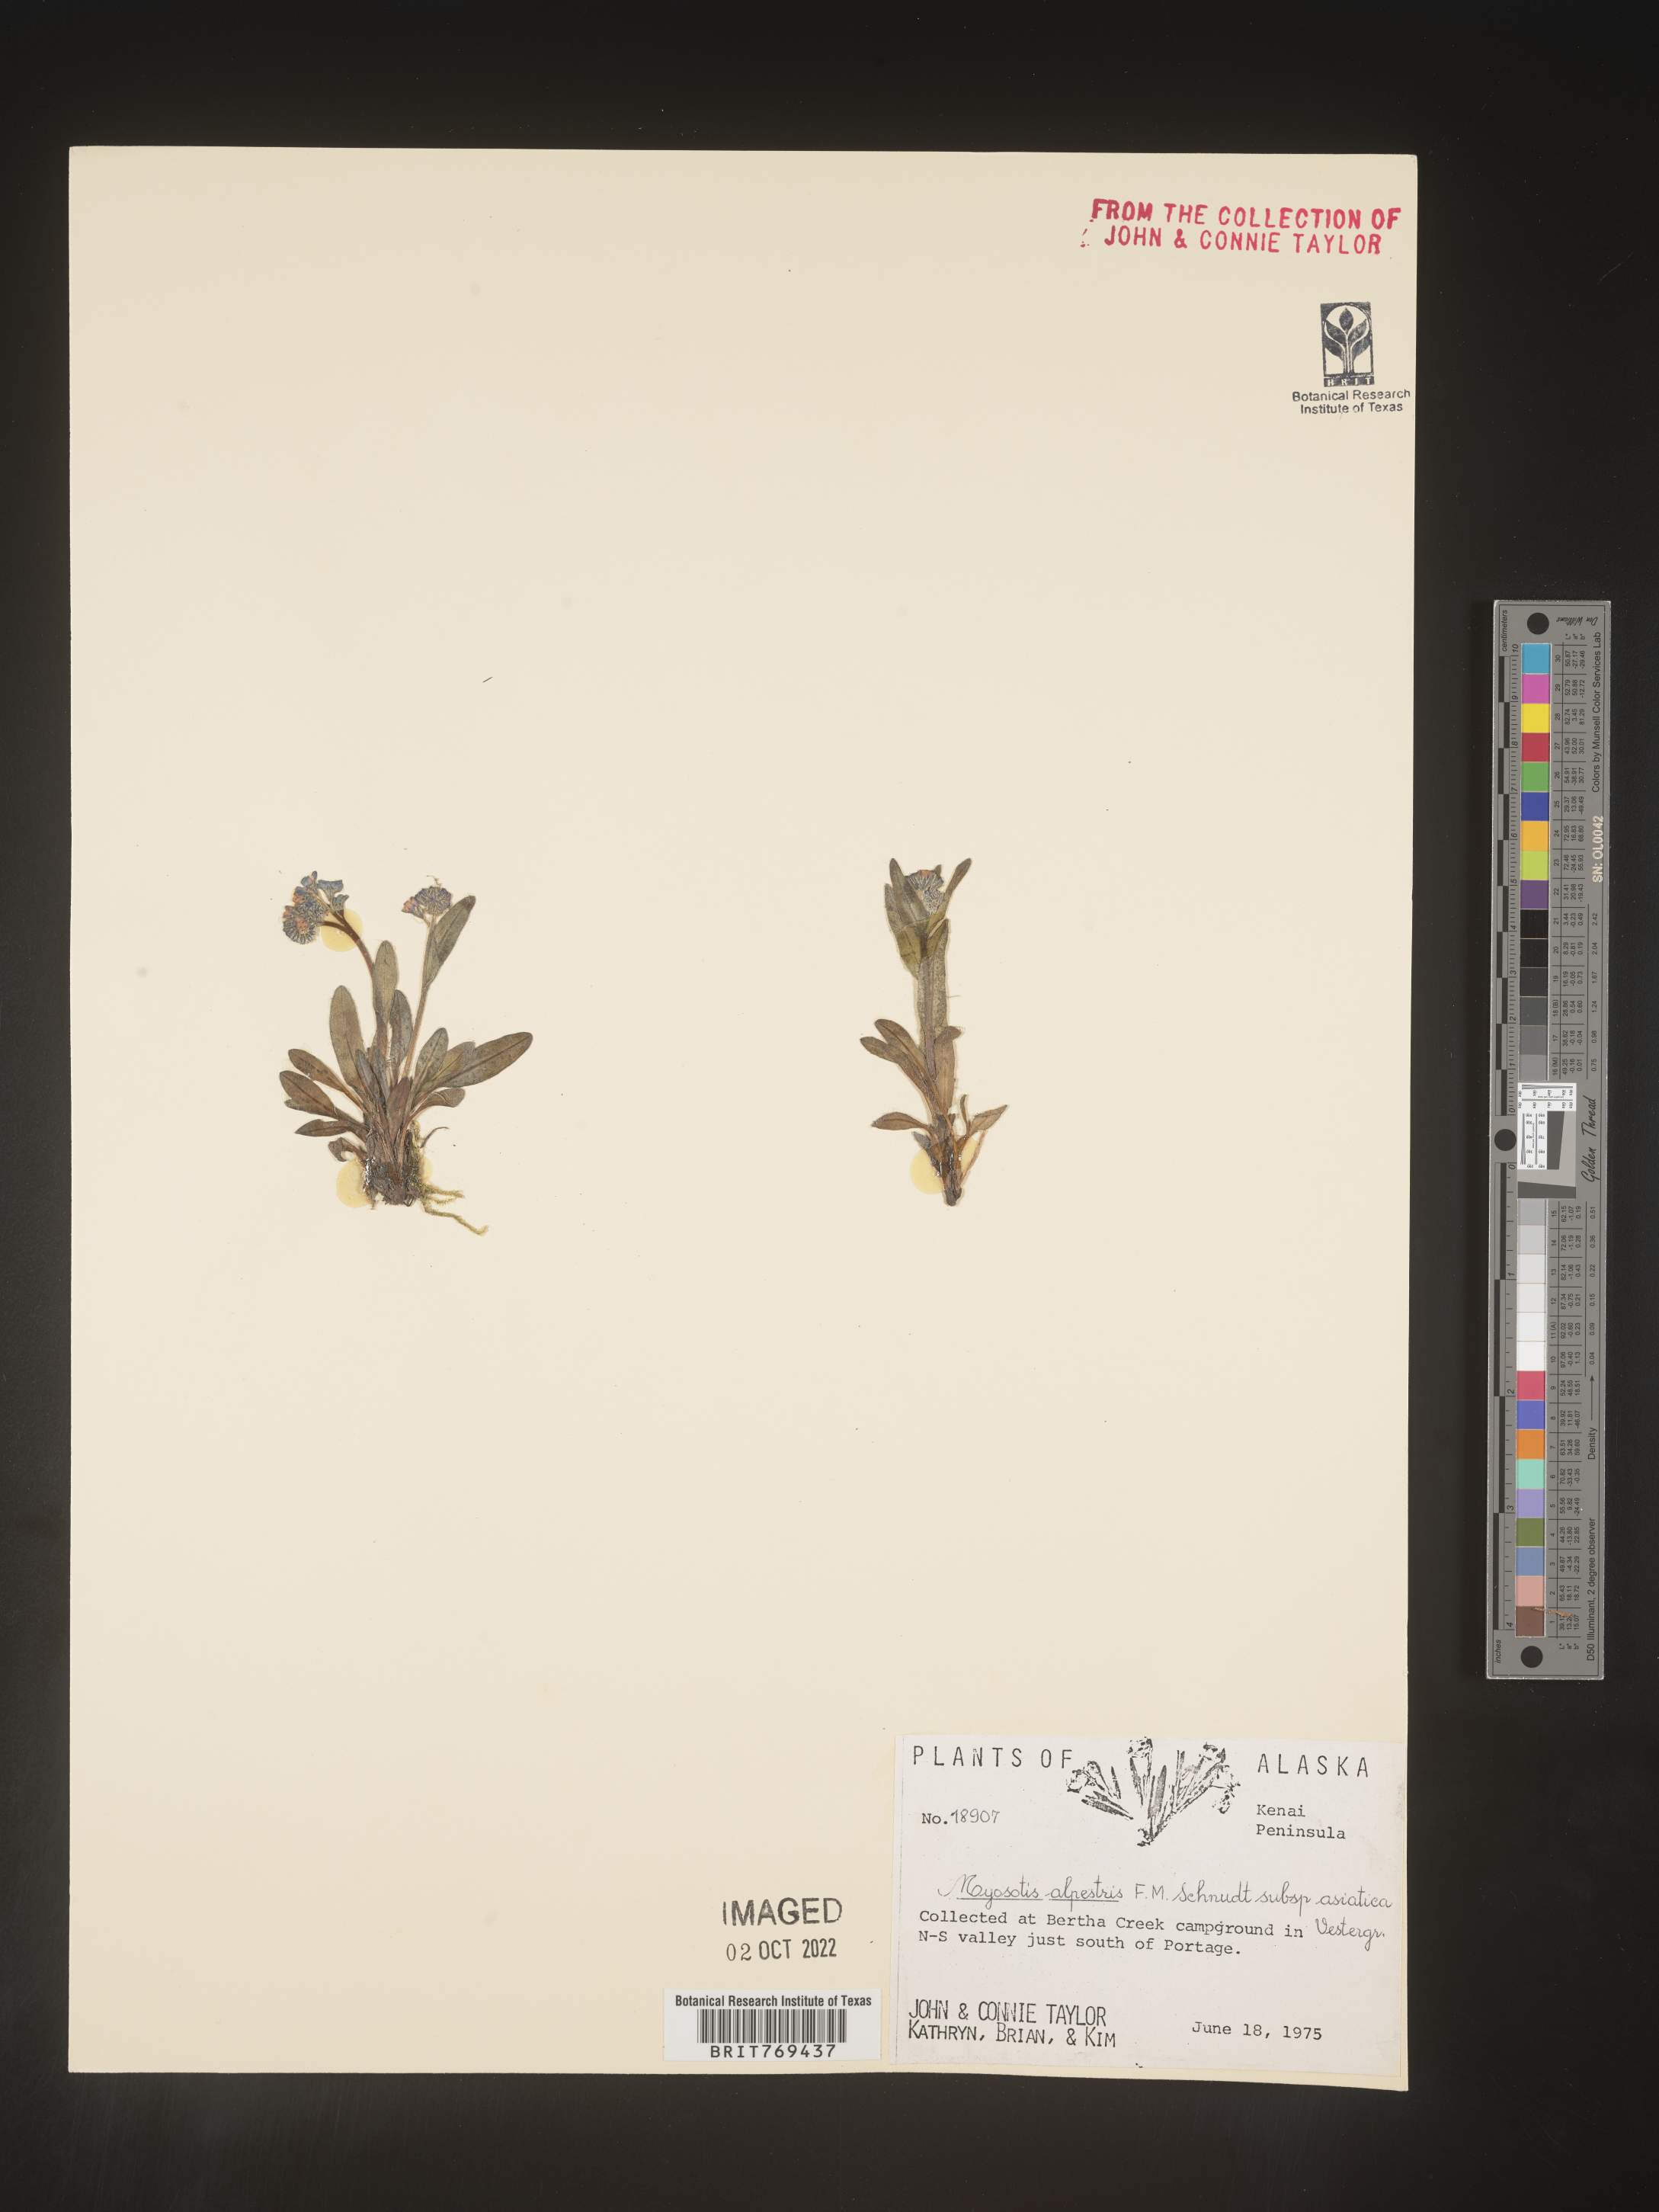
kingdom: Plantae
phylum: Tracheophyta
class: Magnoliopsida
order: Boraginales
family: Boraginaceae
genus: Myosotis
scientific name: Myosotis
